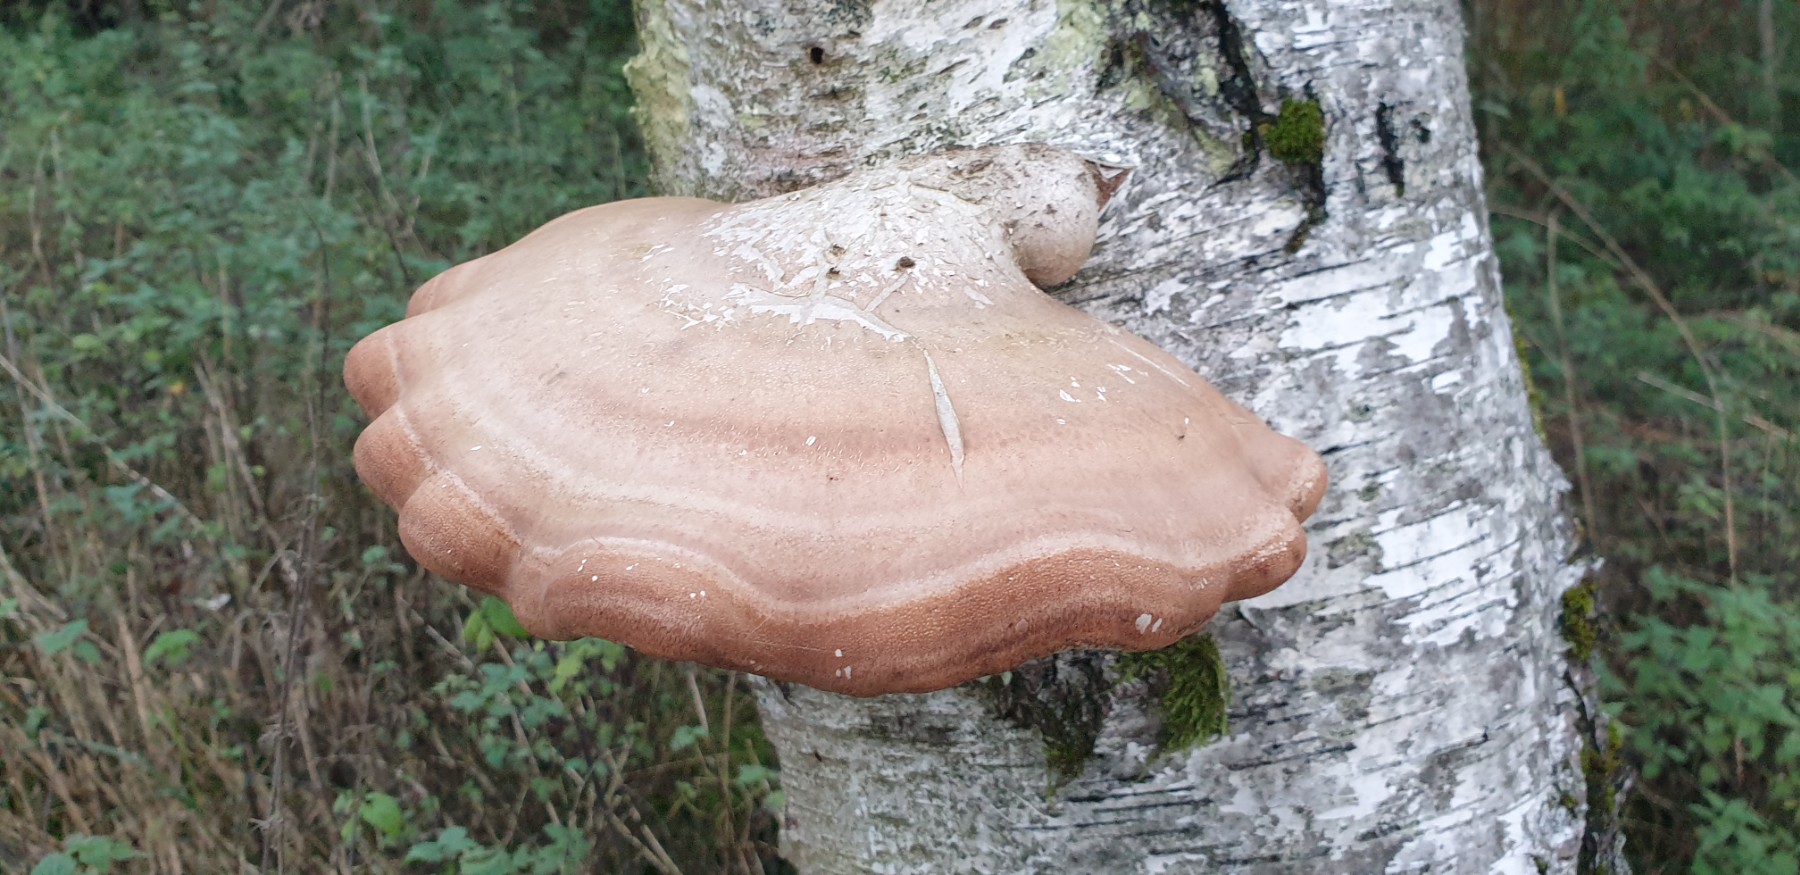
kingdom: Fungi
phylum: Basidiomycota
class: Agaricomycetes
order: Polyporales
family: Fomitopsidaceae
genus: Fomitopsis
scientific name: Fomitopsis betulina
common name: birkeporesvamp
